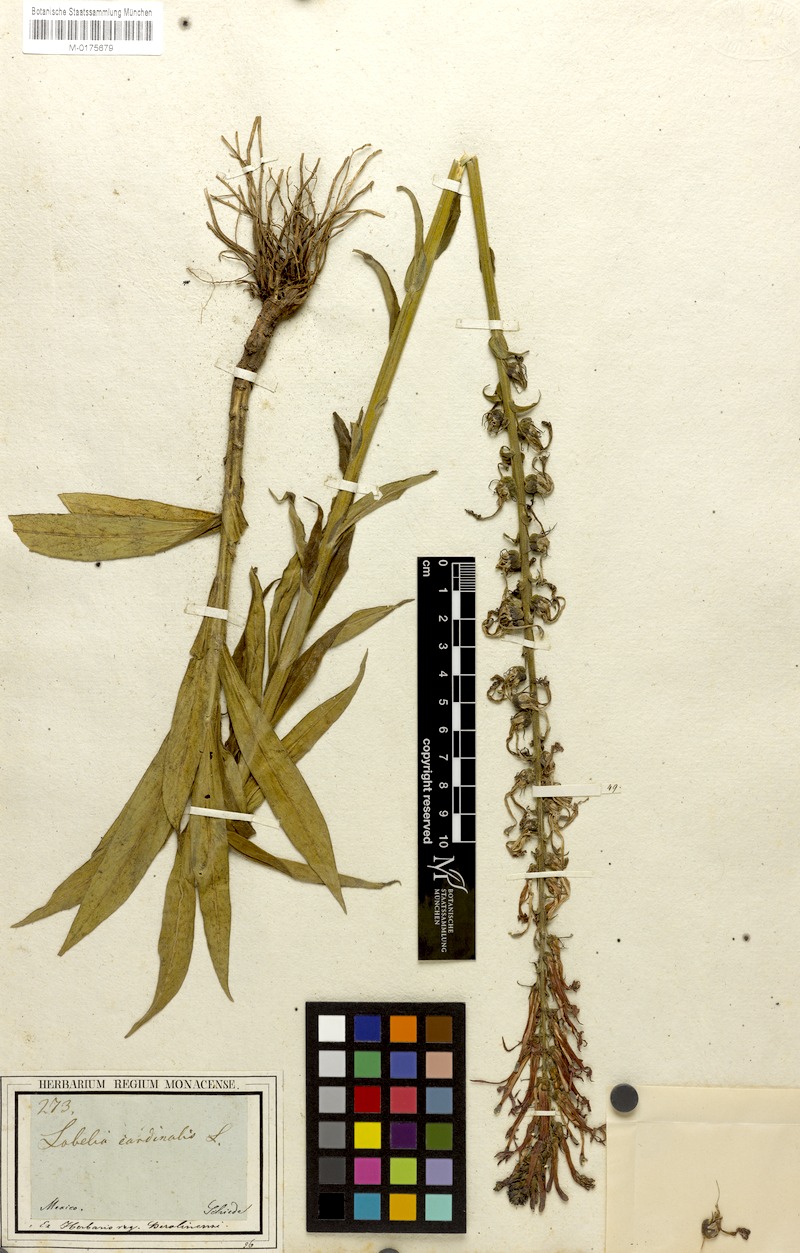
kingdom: Plantae
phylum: Tracheophyta
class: Magnoliopsida
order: Asterales
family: Campanulaceae
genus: Lobelia
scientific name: Lobelia cardinalis
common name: Cardinal flower
